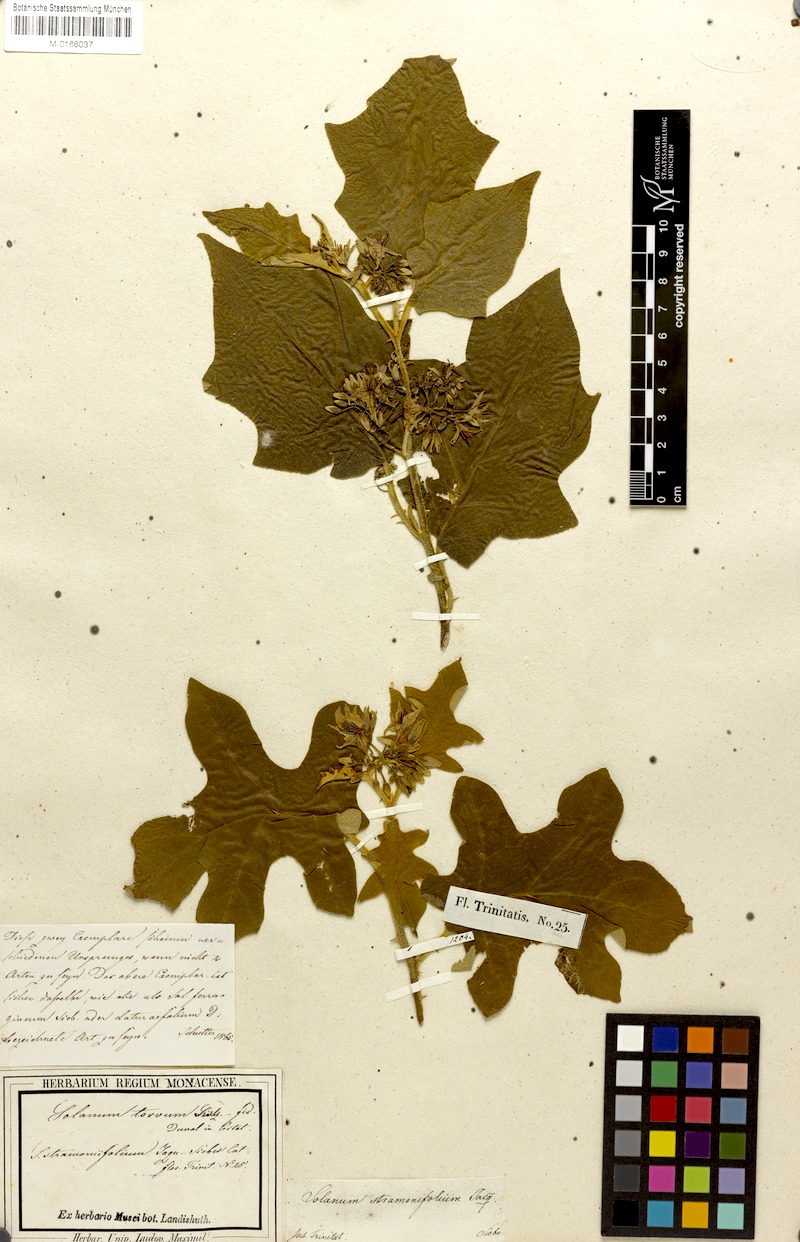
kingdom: Plantae
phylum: Tracheophyta
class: Magnoliopsida
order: Solanales
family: Solanaceae
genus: Solanum
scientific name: Solanum torvum
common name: Turkey berry
